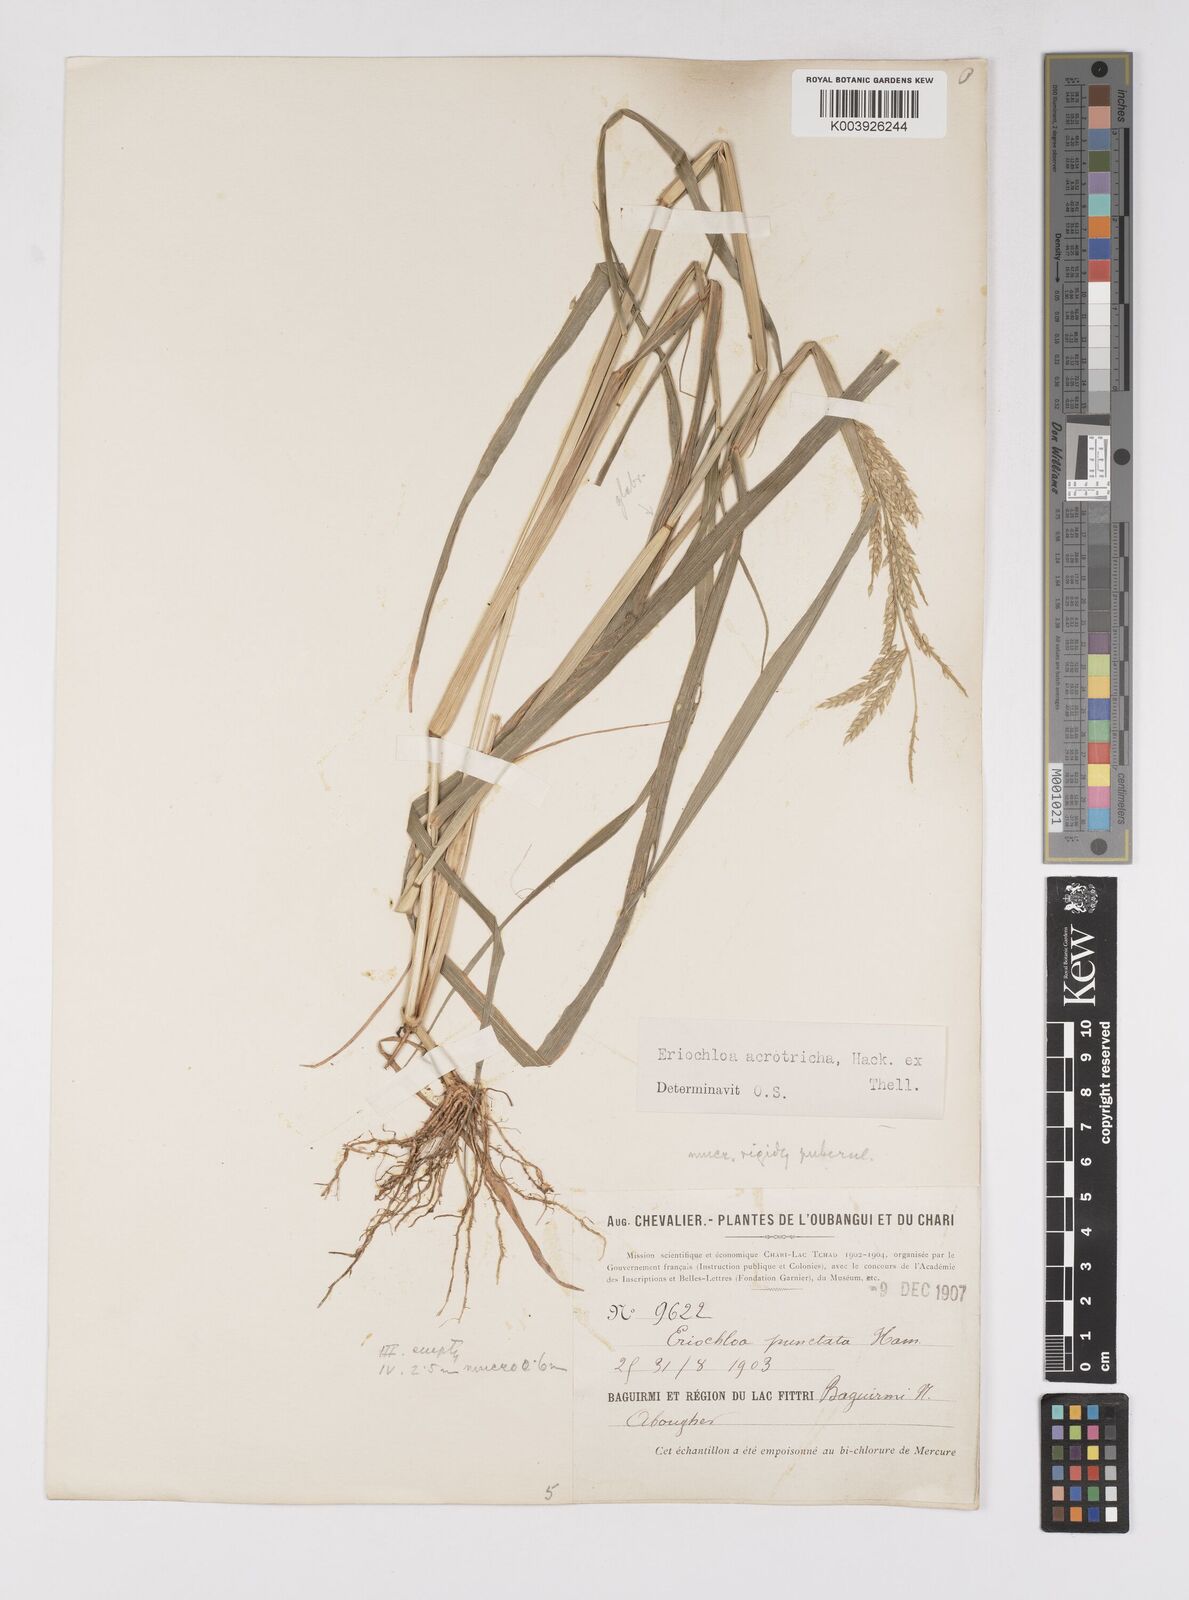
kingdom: Plantae
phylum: Tracheophyta
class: Liliopsida
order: Poales
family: Poaceae
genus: Eriochloa
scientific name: Eriochloa barbatus
